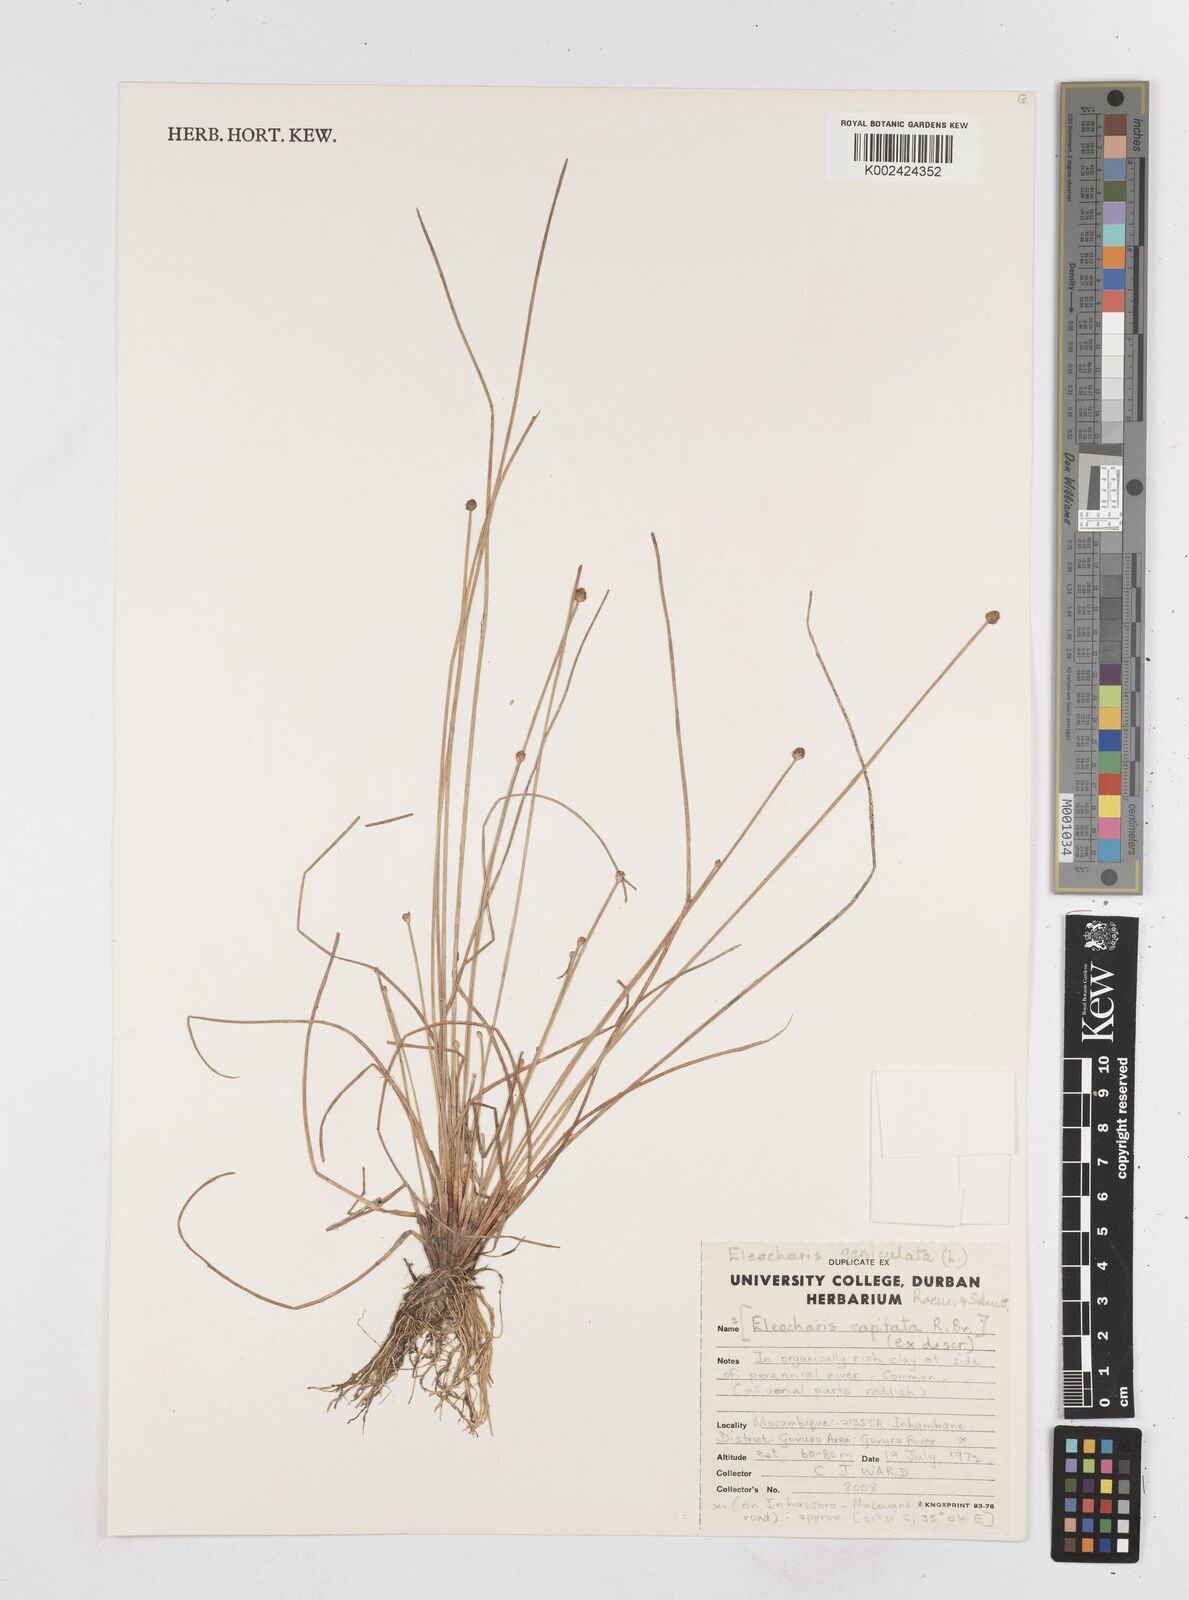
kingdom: Plantae
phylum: Tracheophyta
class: Liliopsida
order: Poales
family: Cyperaceae
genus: Eleocharis
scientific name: Eleocharis geniculata
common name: Canada spikesedge
